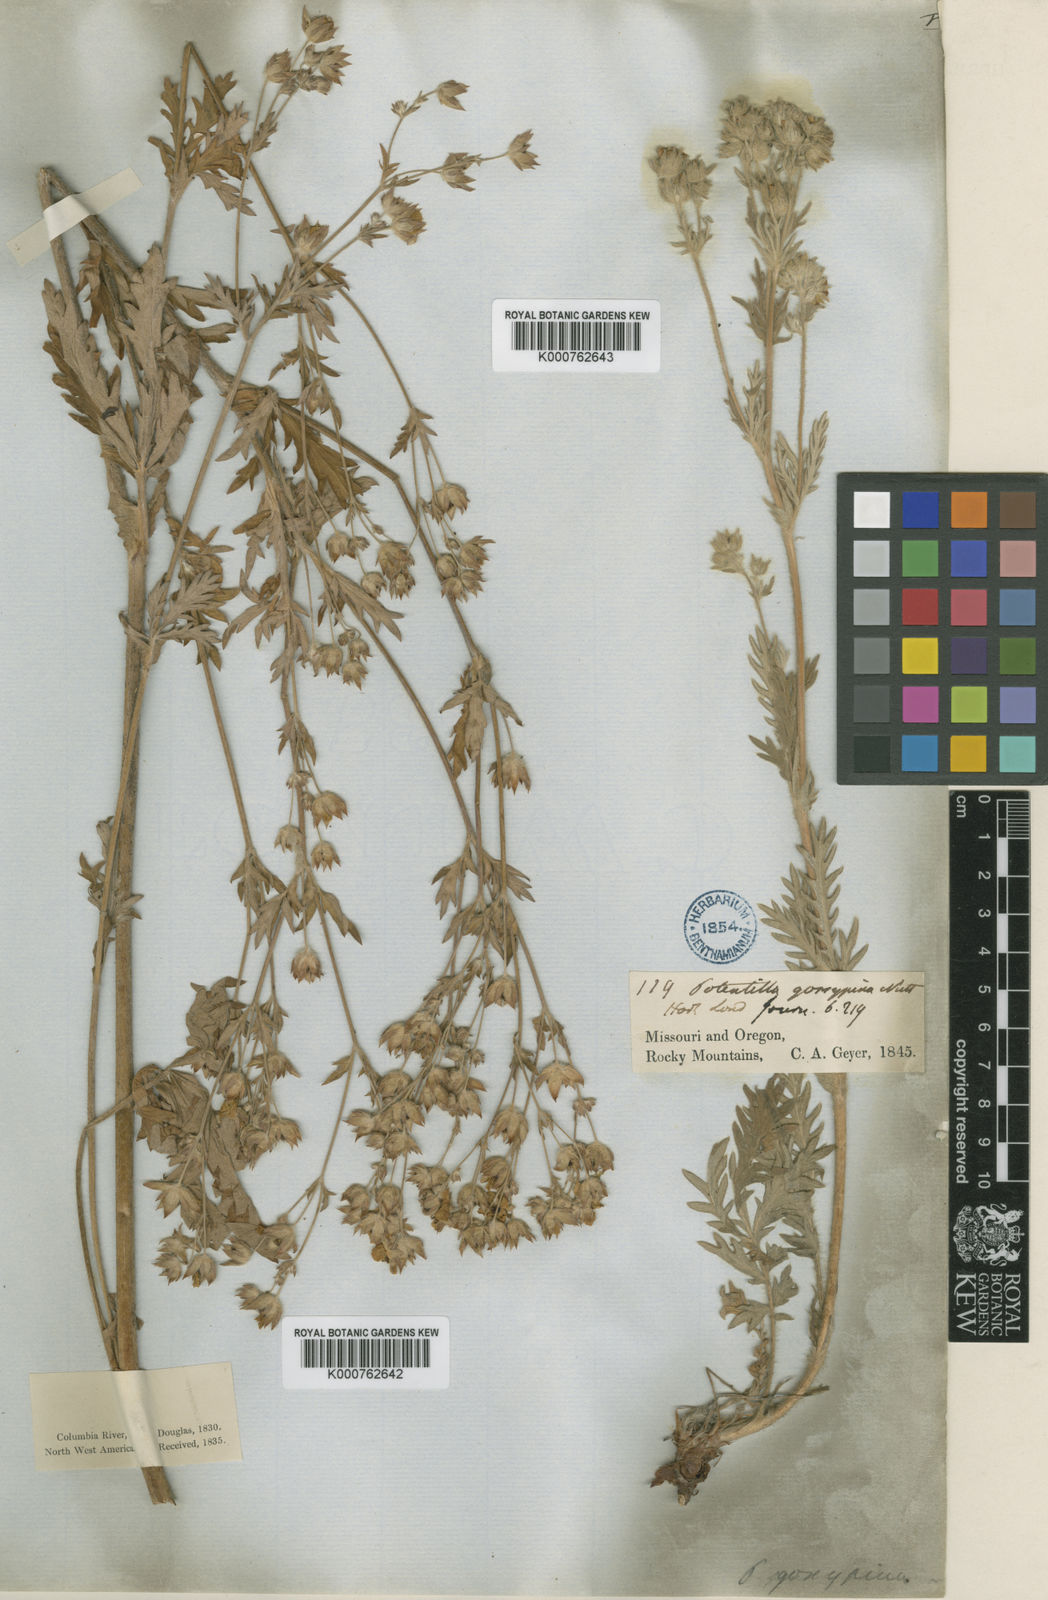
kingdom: Plantae
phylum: Tracheophyta
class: Magnoliopsida
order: Rosales
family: Rosaceae
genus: Potentilla
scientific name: Potentilla pensylvanica
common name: Pennsylvania cinquefoil
